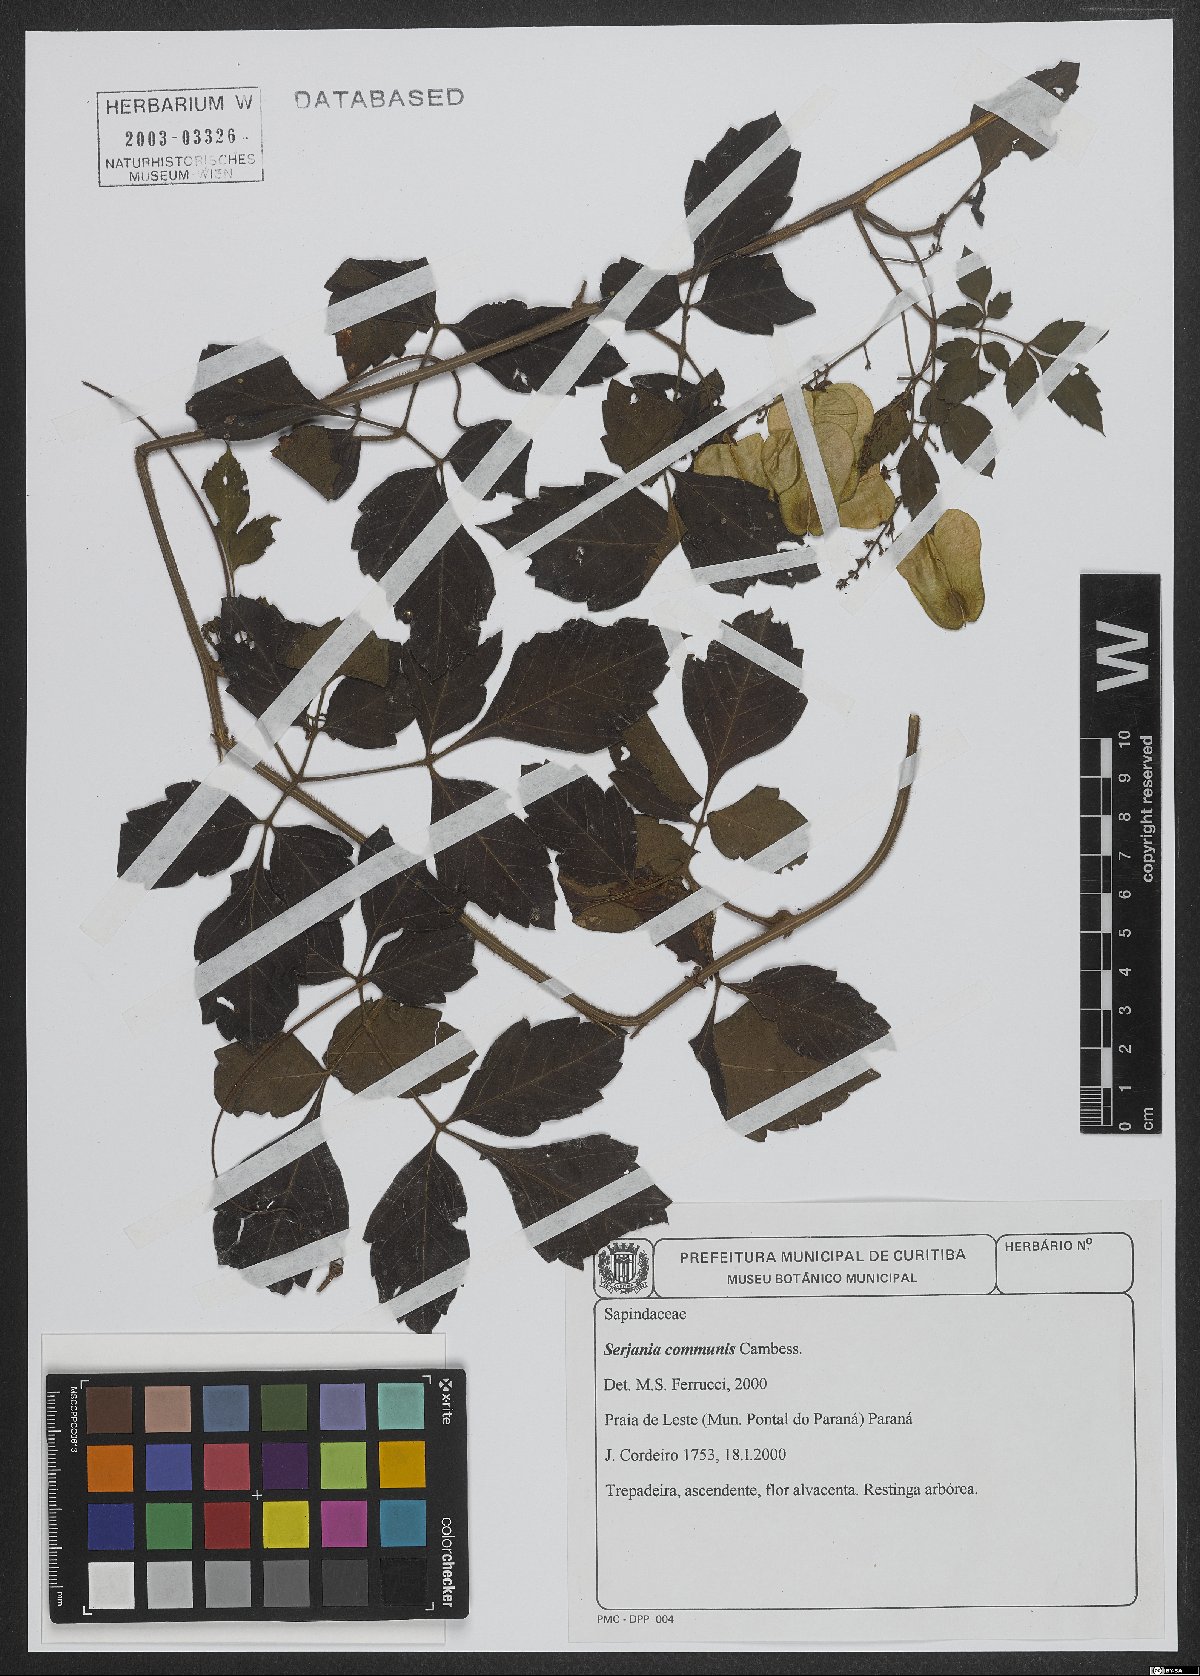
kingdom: Plantae
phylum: Tracheophyta
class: Magnoliopsida
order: Sapindales
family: Sapindaceae
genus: Serjania
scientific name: Serjania communis
